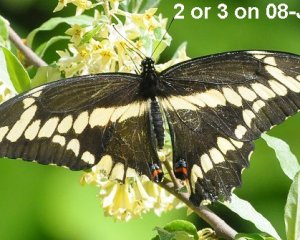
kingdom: Animalia
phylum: Arthropoda
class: Insecta
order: Lepidoptera
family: Papilionidae
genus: Papilio
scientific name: Papilio cresphontes
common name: Eastern Giant Swallowtail
